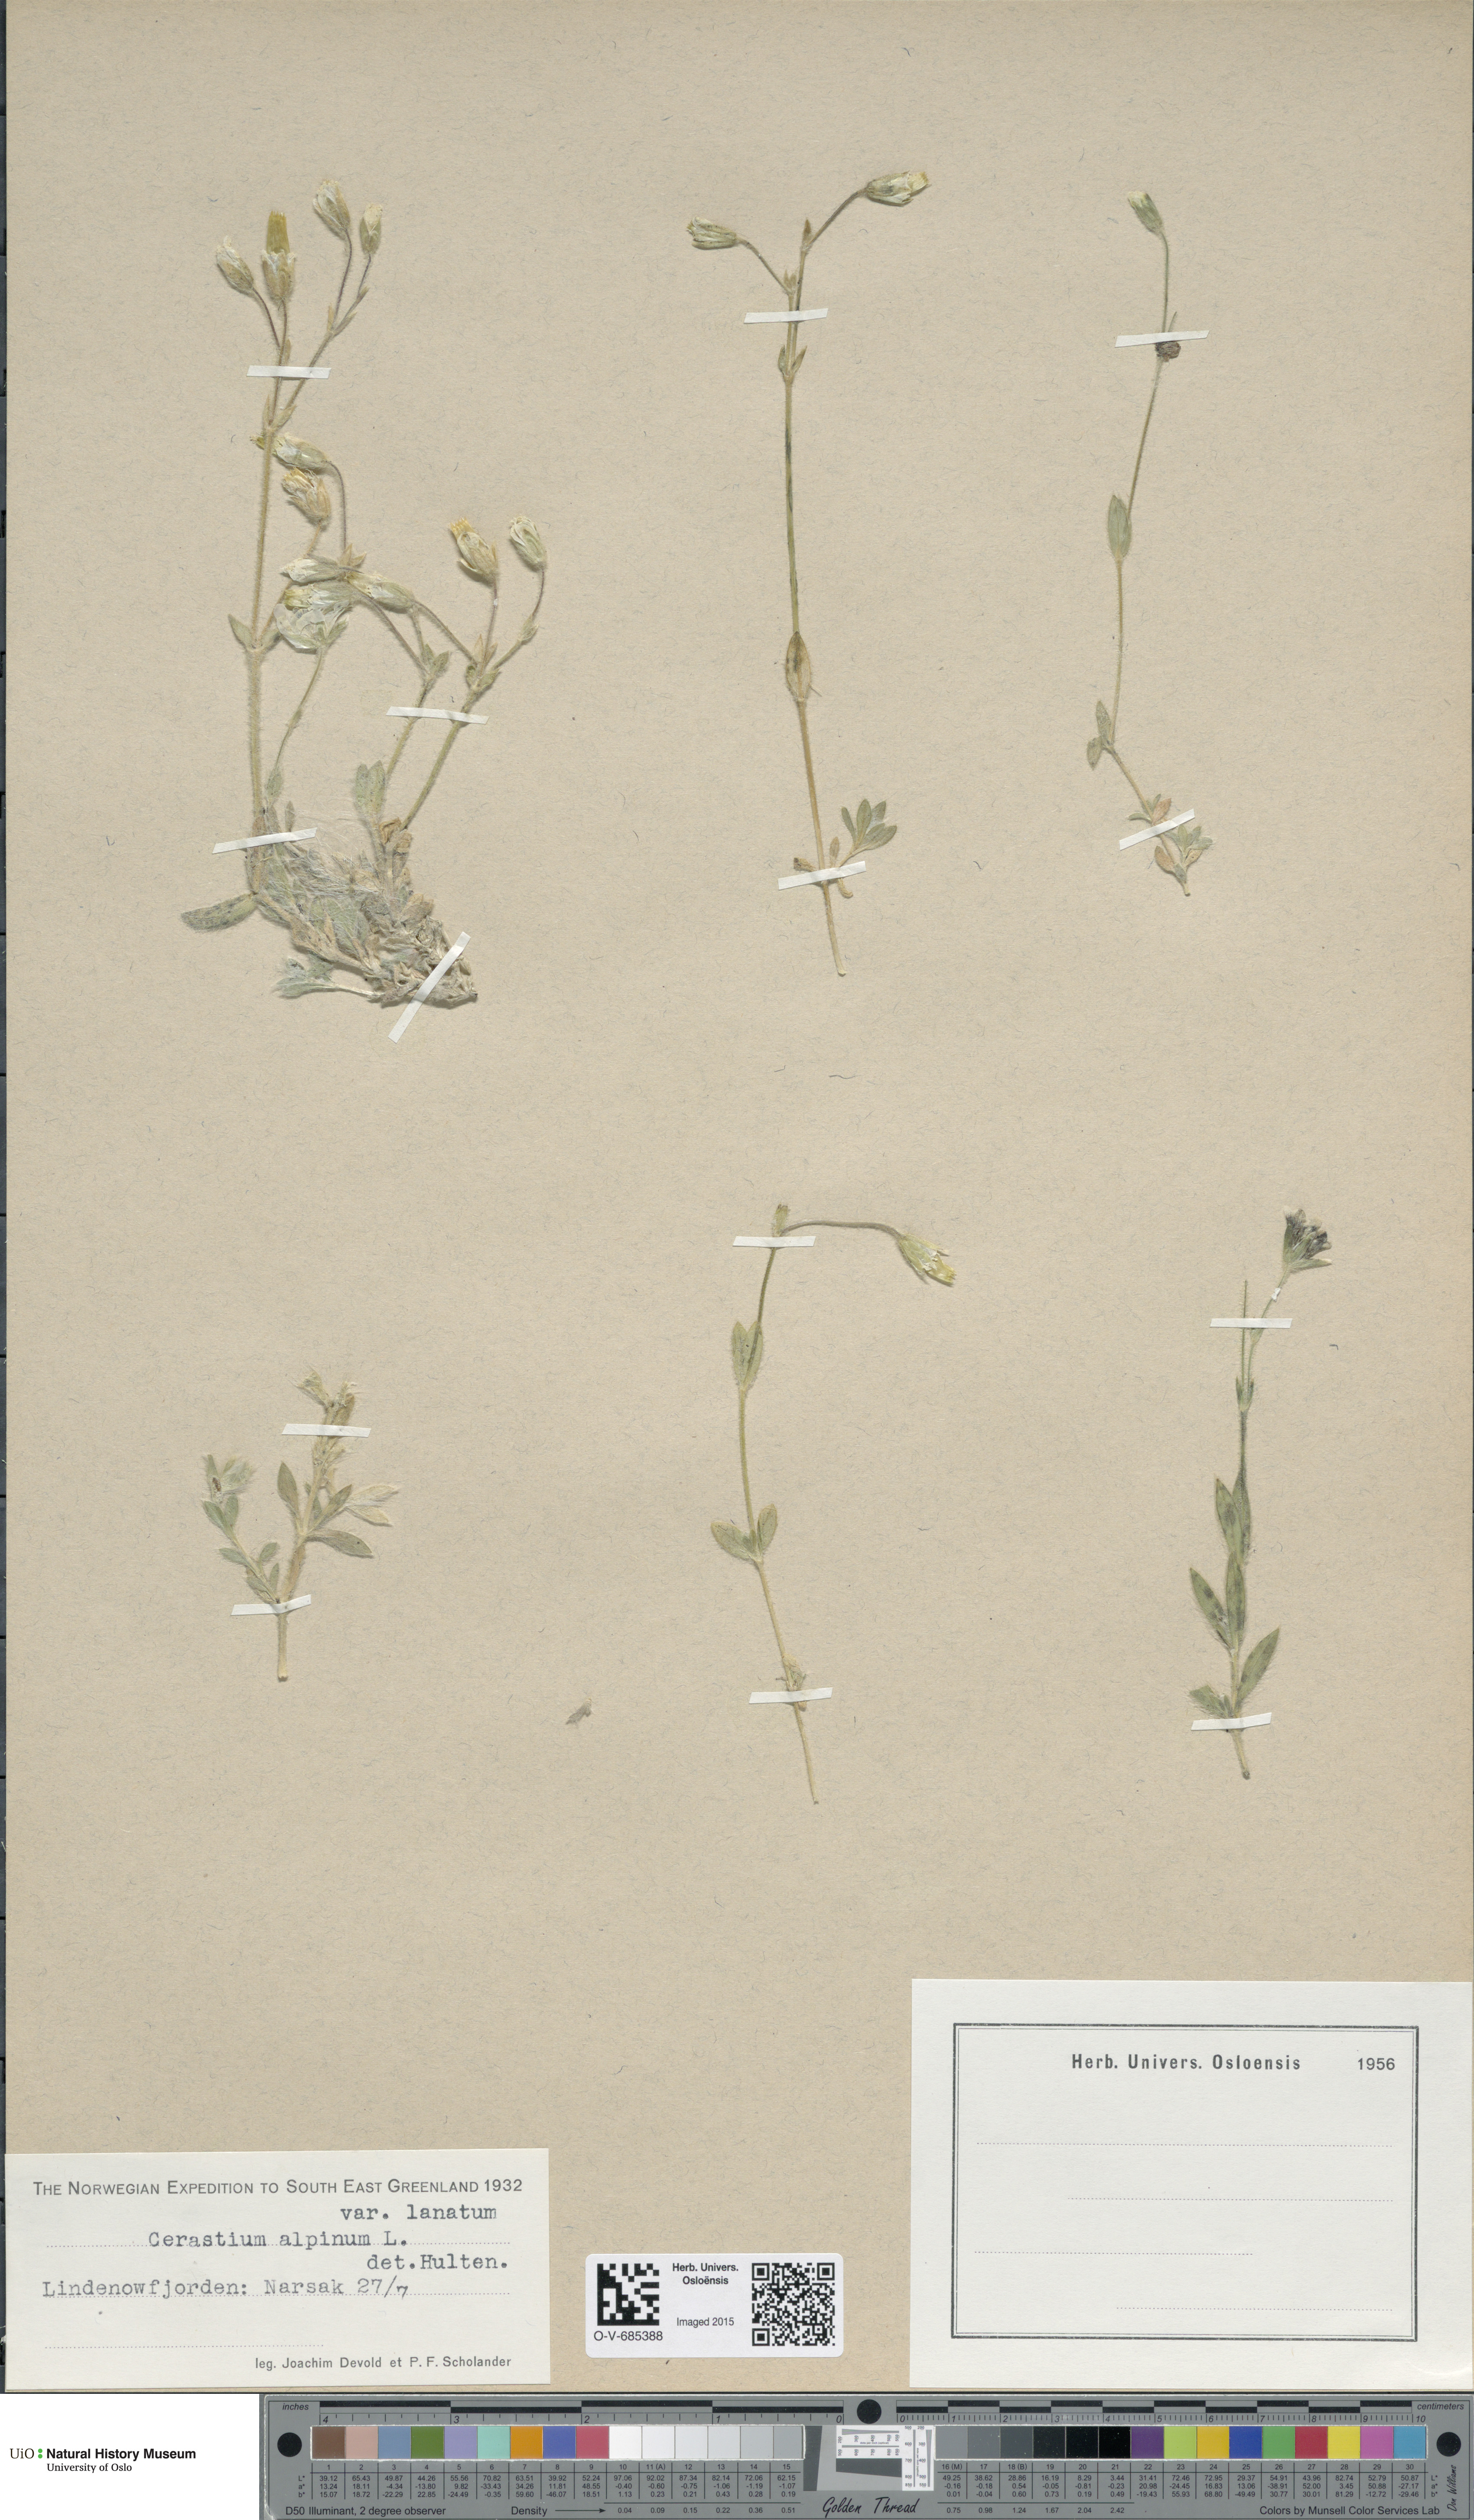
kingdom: Plantae
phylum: Tracheophyta
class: Magnoliopsida
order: Caryophyllales
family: Caryophyllaceae
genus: Cerastium
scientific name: Cerastium alpinum
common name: Alpine mouse-ear
